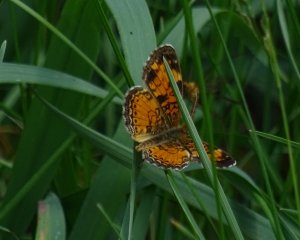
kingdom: Animalia
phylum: Arthropoda
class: Insecta
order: Lepidoptera
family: Nymphalidae
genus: Phyciodes
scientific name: Phyciodes tharos
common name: Northern Crescent
